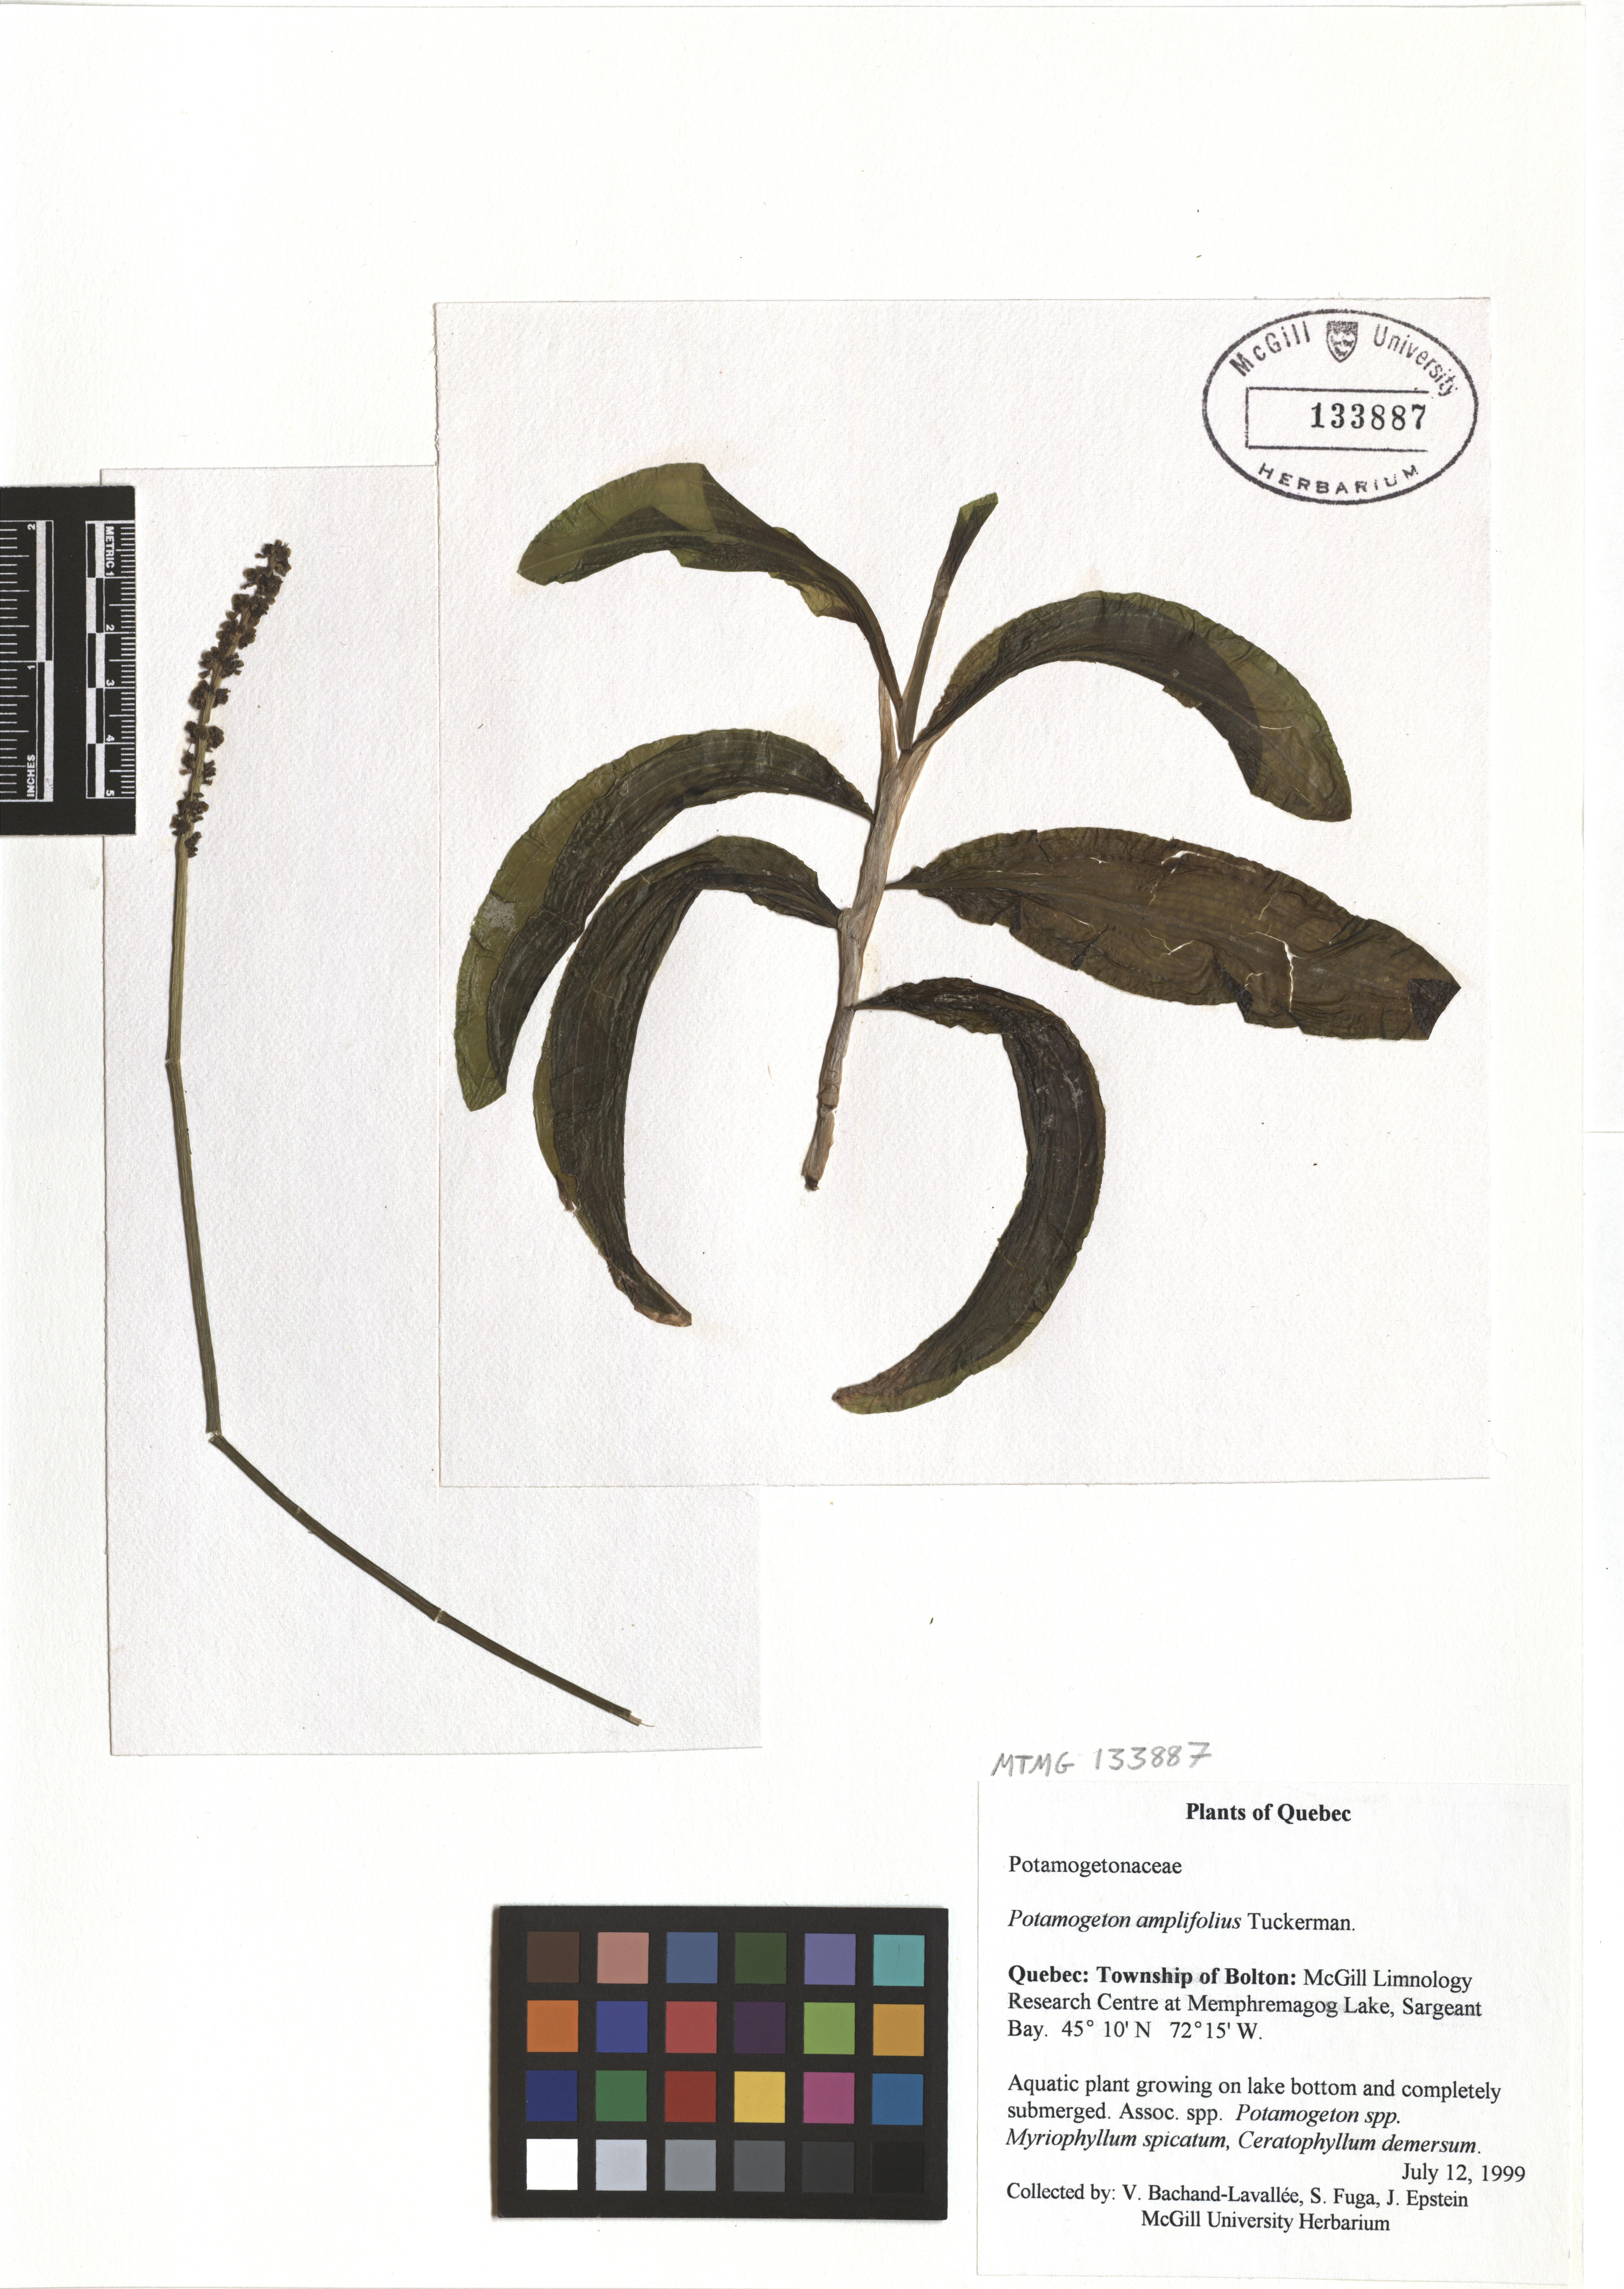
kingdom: Plantae
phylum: Tracheophyta
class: Liliopsida
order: Alismatales
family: Potamogetonaceae
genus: Potamogeton
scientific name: Potamogeton amplifolius
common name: Broad-leaved pondweed
